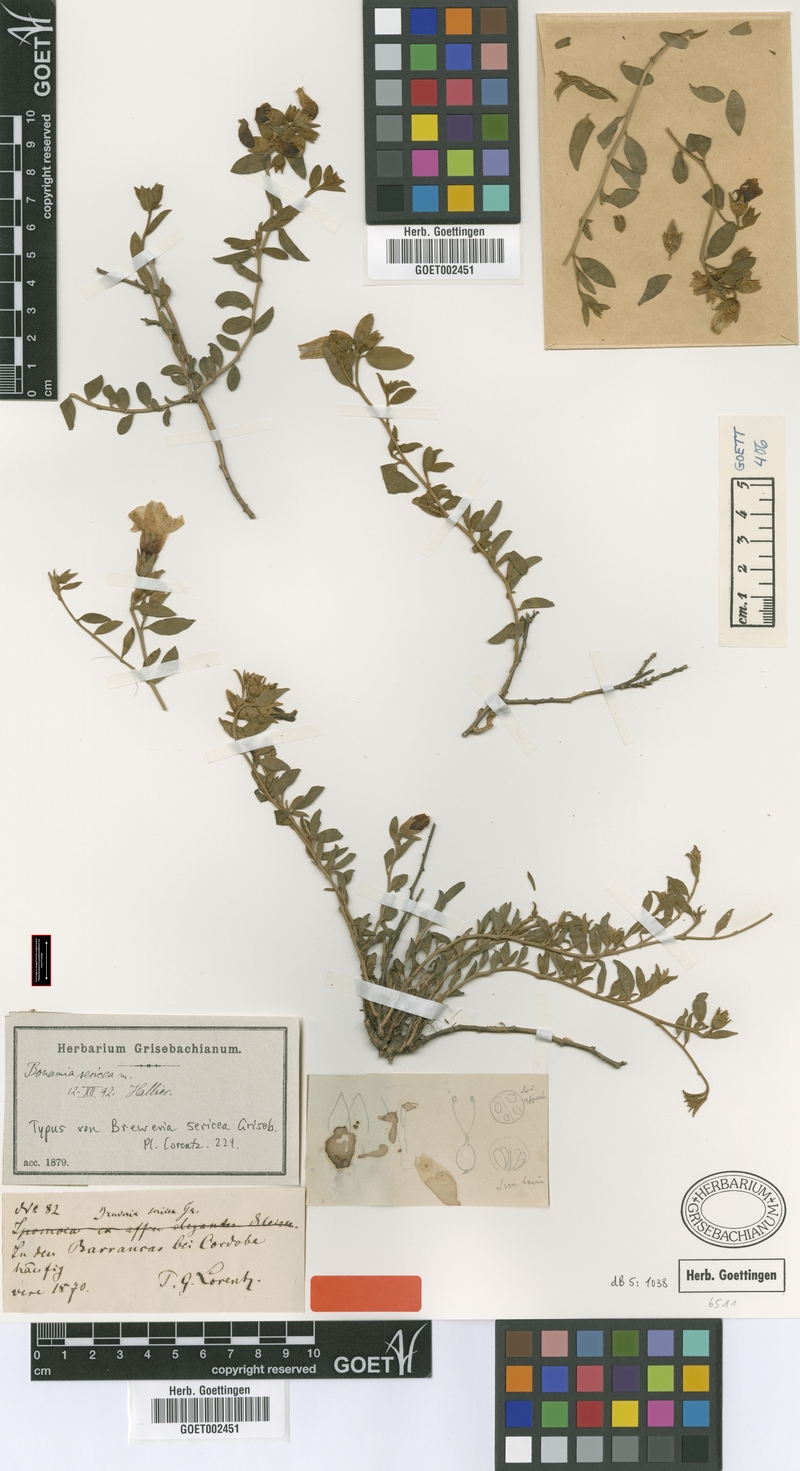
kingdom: Plantae
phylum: Tracheophyta
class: Magnoliopsida
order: Solanales
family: Convolvulaceae
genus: Bonamia
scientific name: Bonamia sericea
